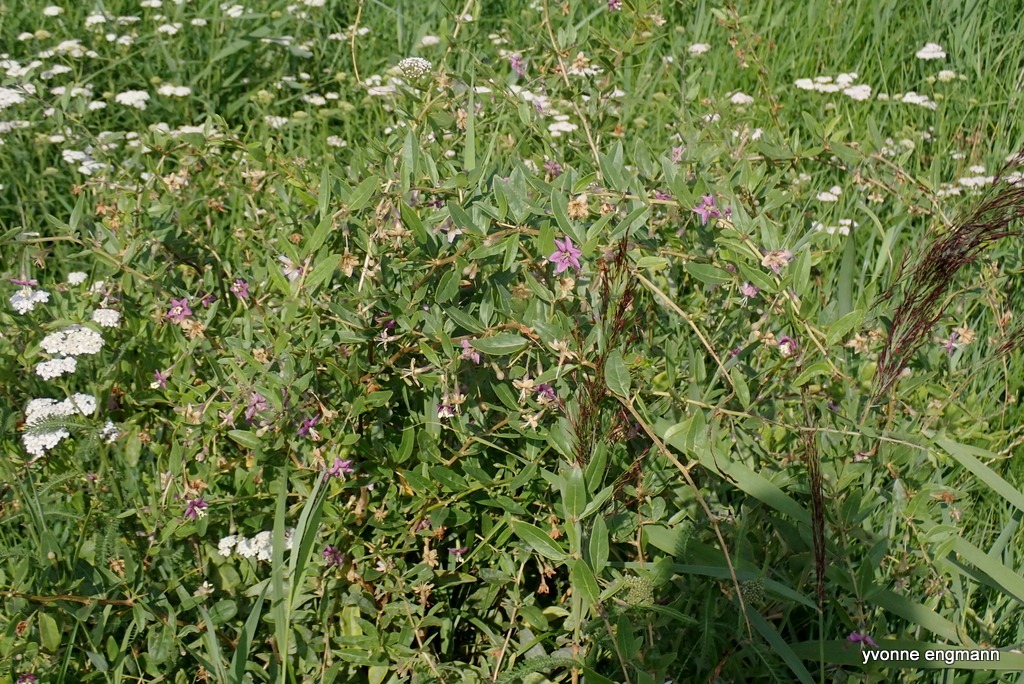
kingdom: Plantae
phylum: Tracheophyta
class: Magnoliopsida
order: Solanales
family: Solanaceae
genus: Lycium
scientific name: Lycium barbarum
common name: Bukketorn
